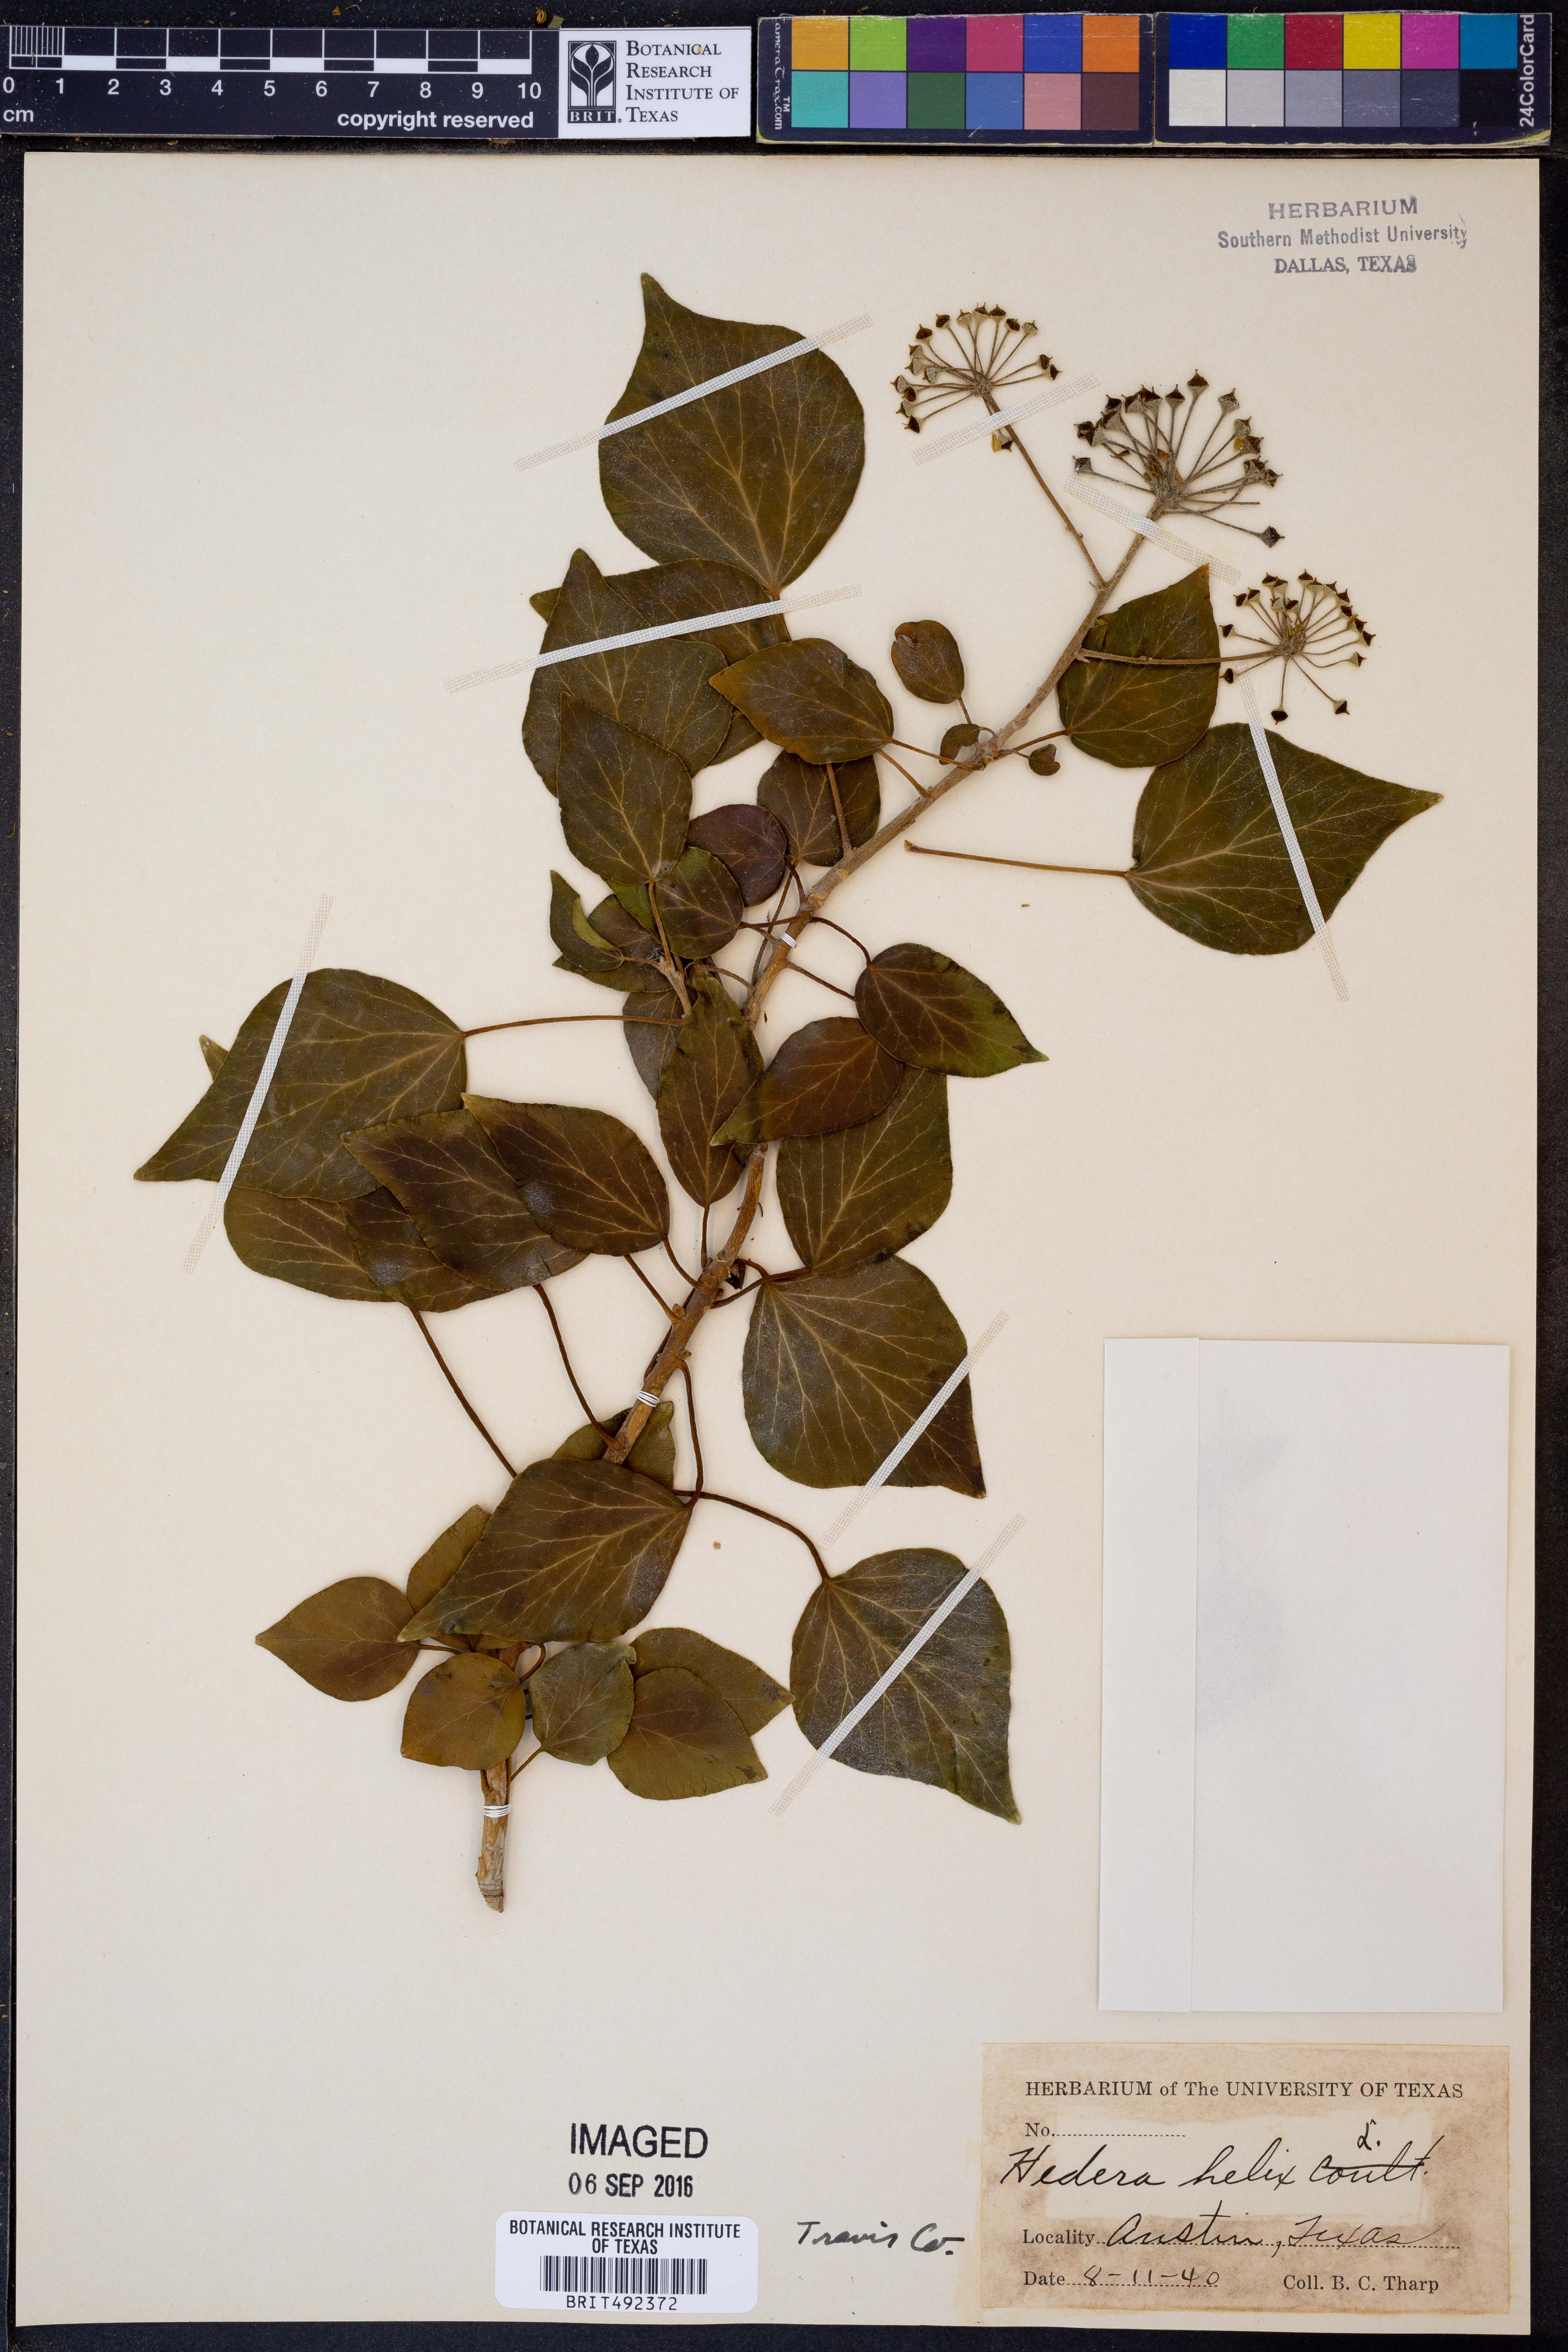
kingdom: Plantae
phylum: Tracheophyta
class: Magnoliopsida
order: Apiales
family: Araliaceae
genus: Hedera
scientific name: Hedera helix
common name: Ivy
